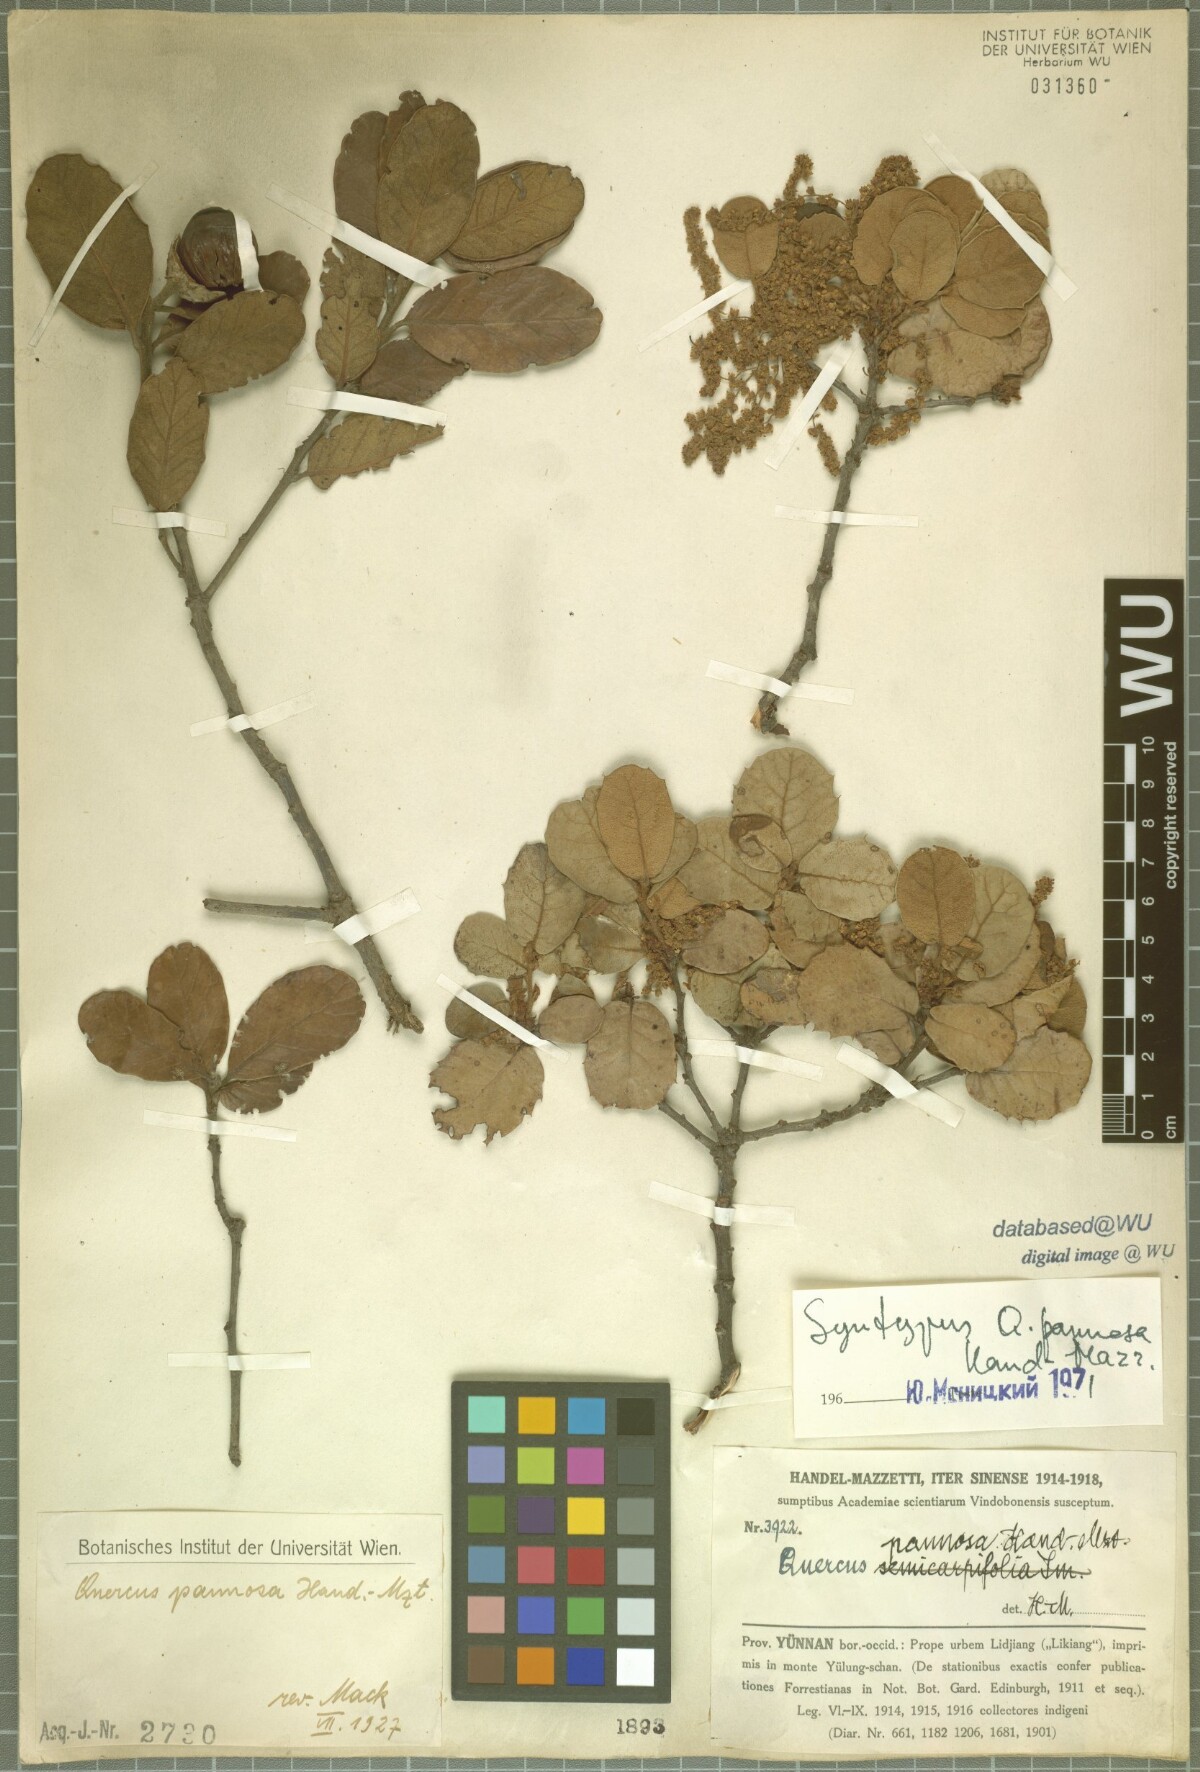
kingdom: Plantae
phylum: Tracheophyta
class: Magnoliopsida
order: Fagales
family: Fagaceae
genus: Quercus
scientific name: Quercus pannosa
